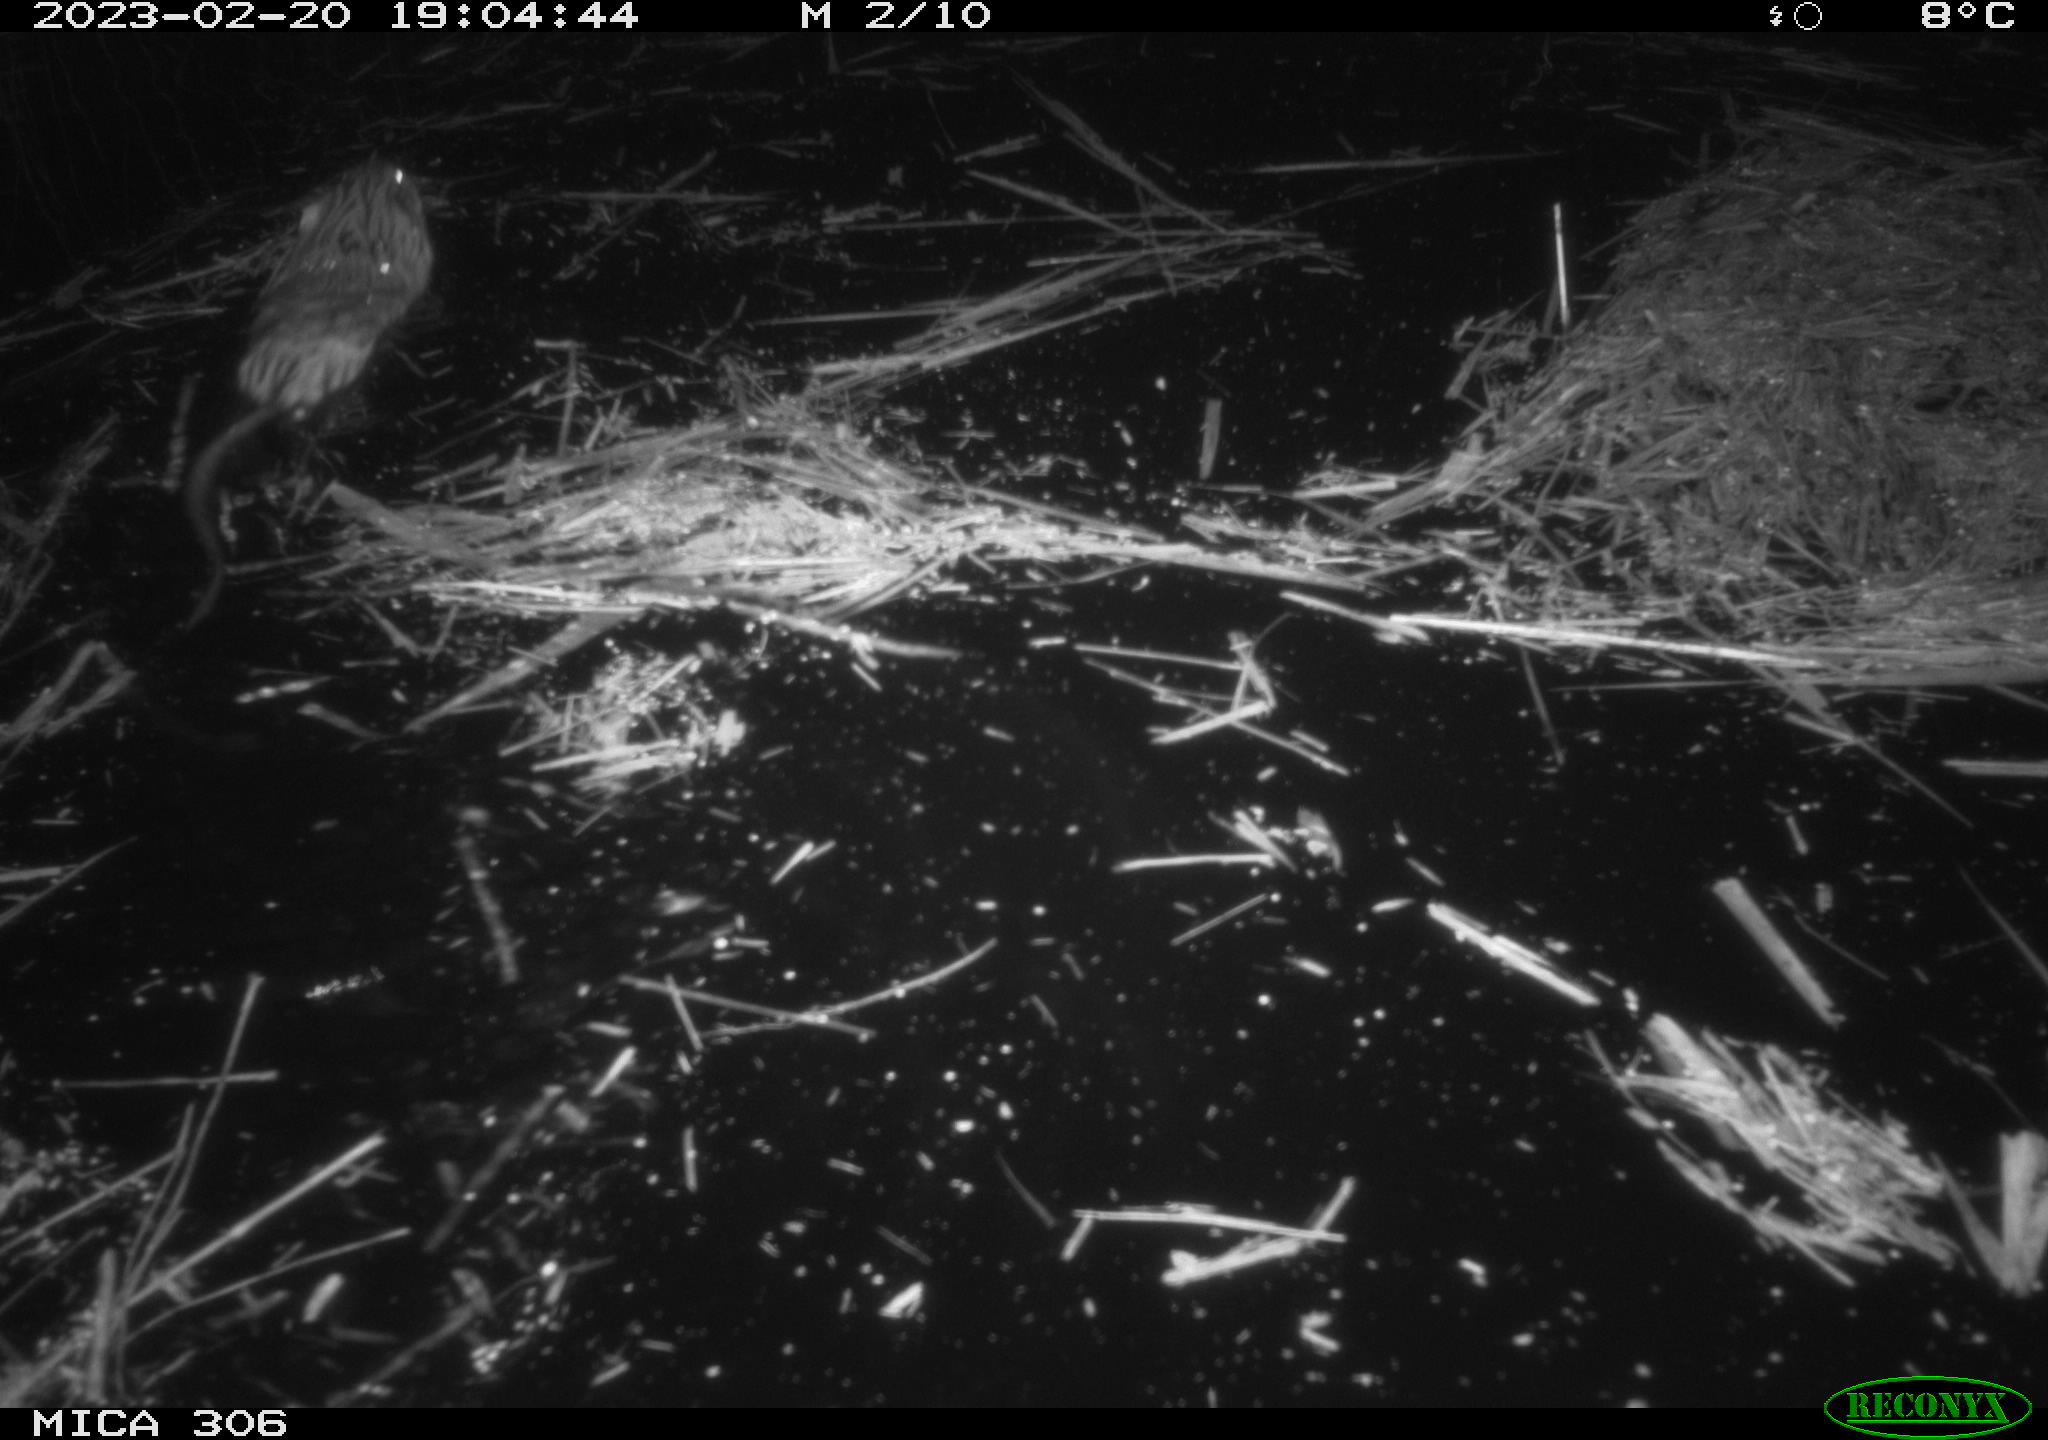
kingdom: Animalia
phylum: Chordata
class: Mammalia
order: Rodentia
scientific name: Rodentia
